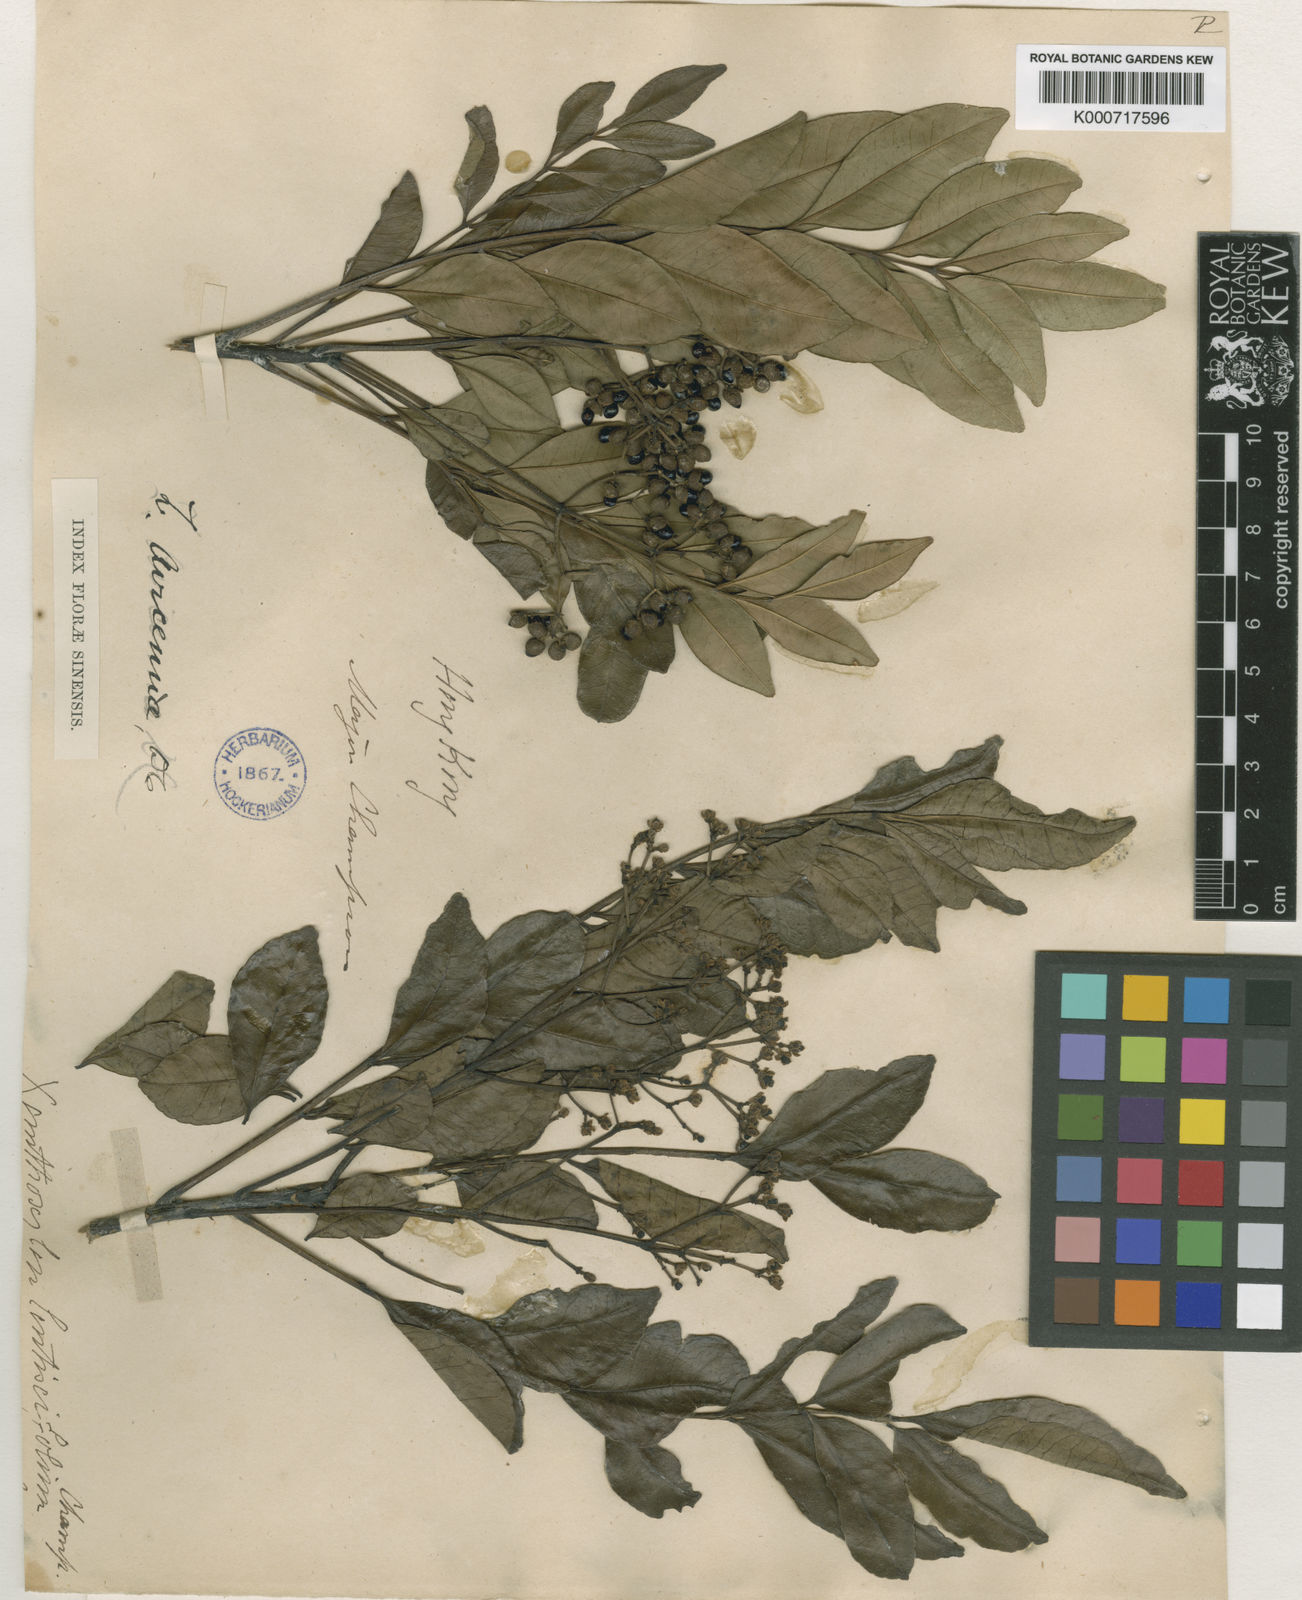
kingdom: Plantae
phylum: Tracheophyta
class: Magnoliopsida
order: Sapindales
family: Rutaceae
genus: Zanthoxylum
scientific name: Zanthoxylum avicennae
